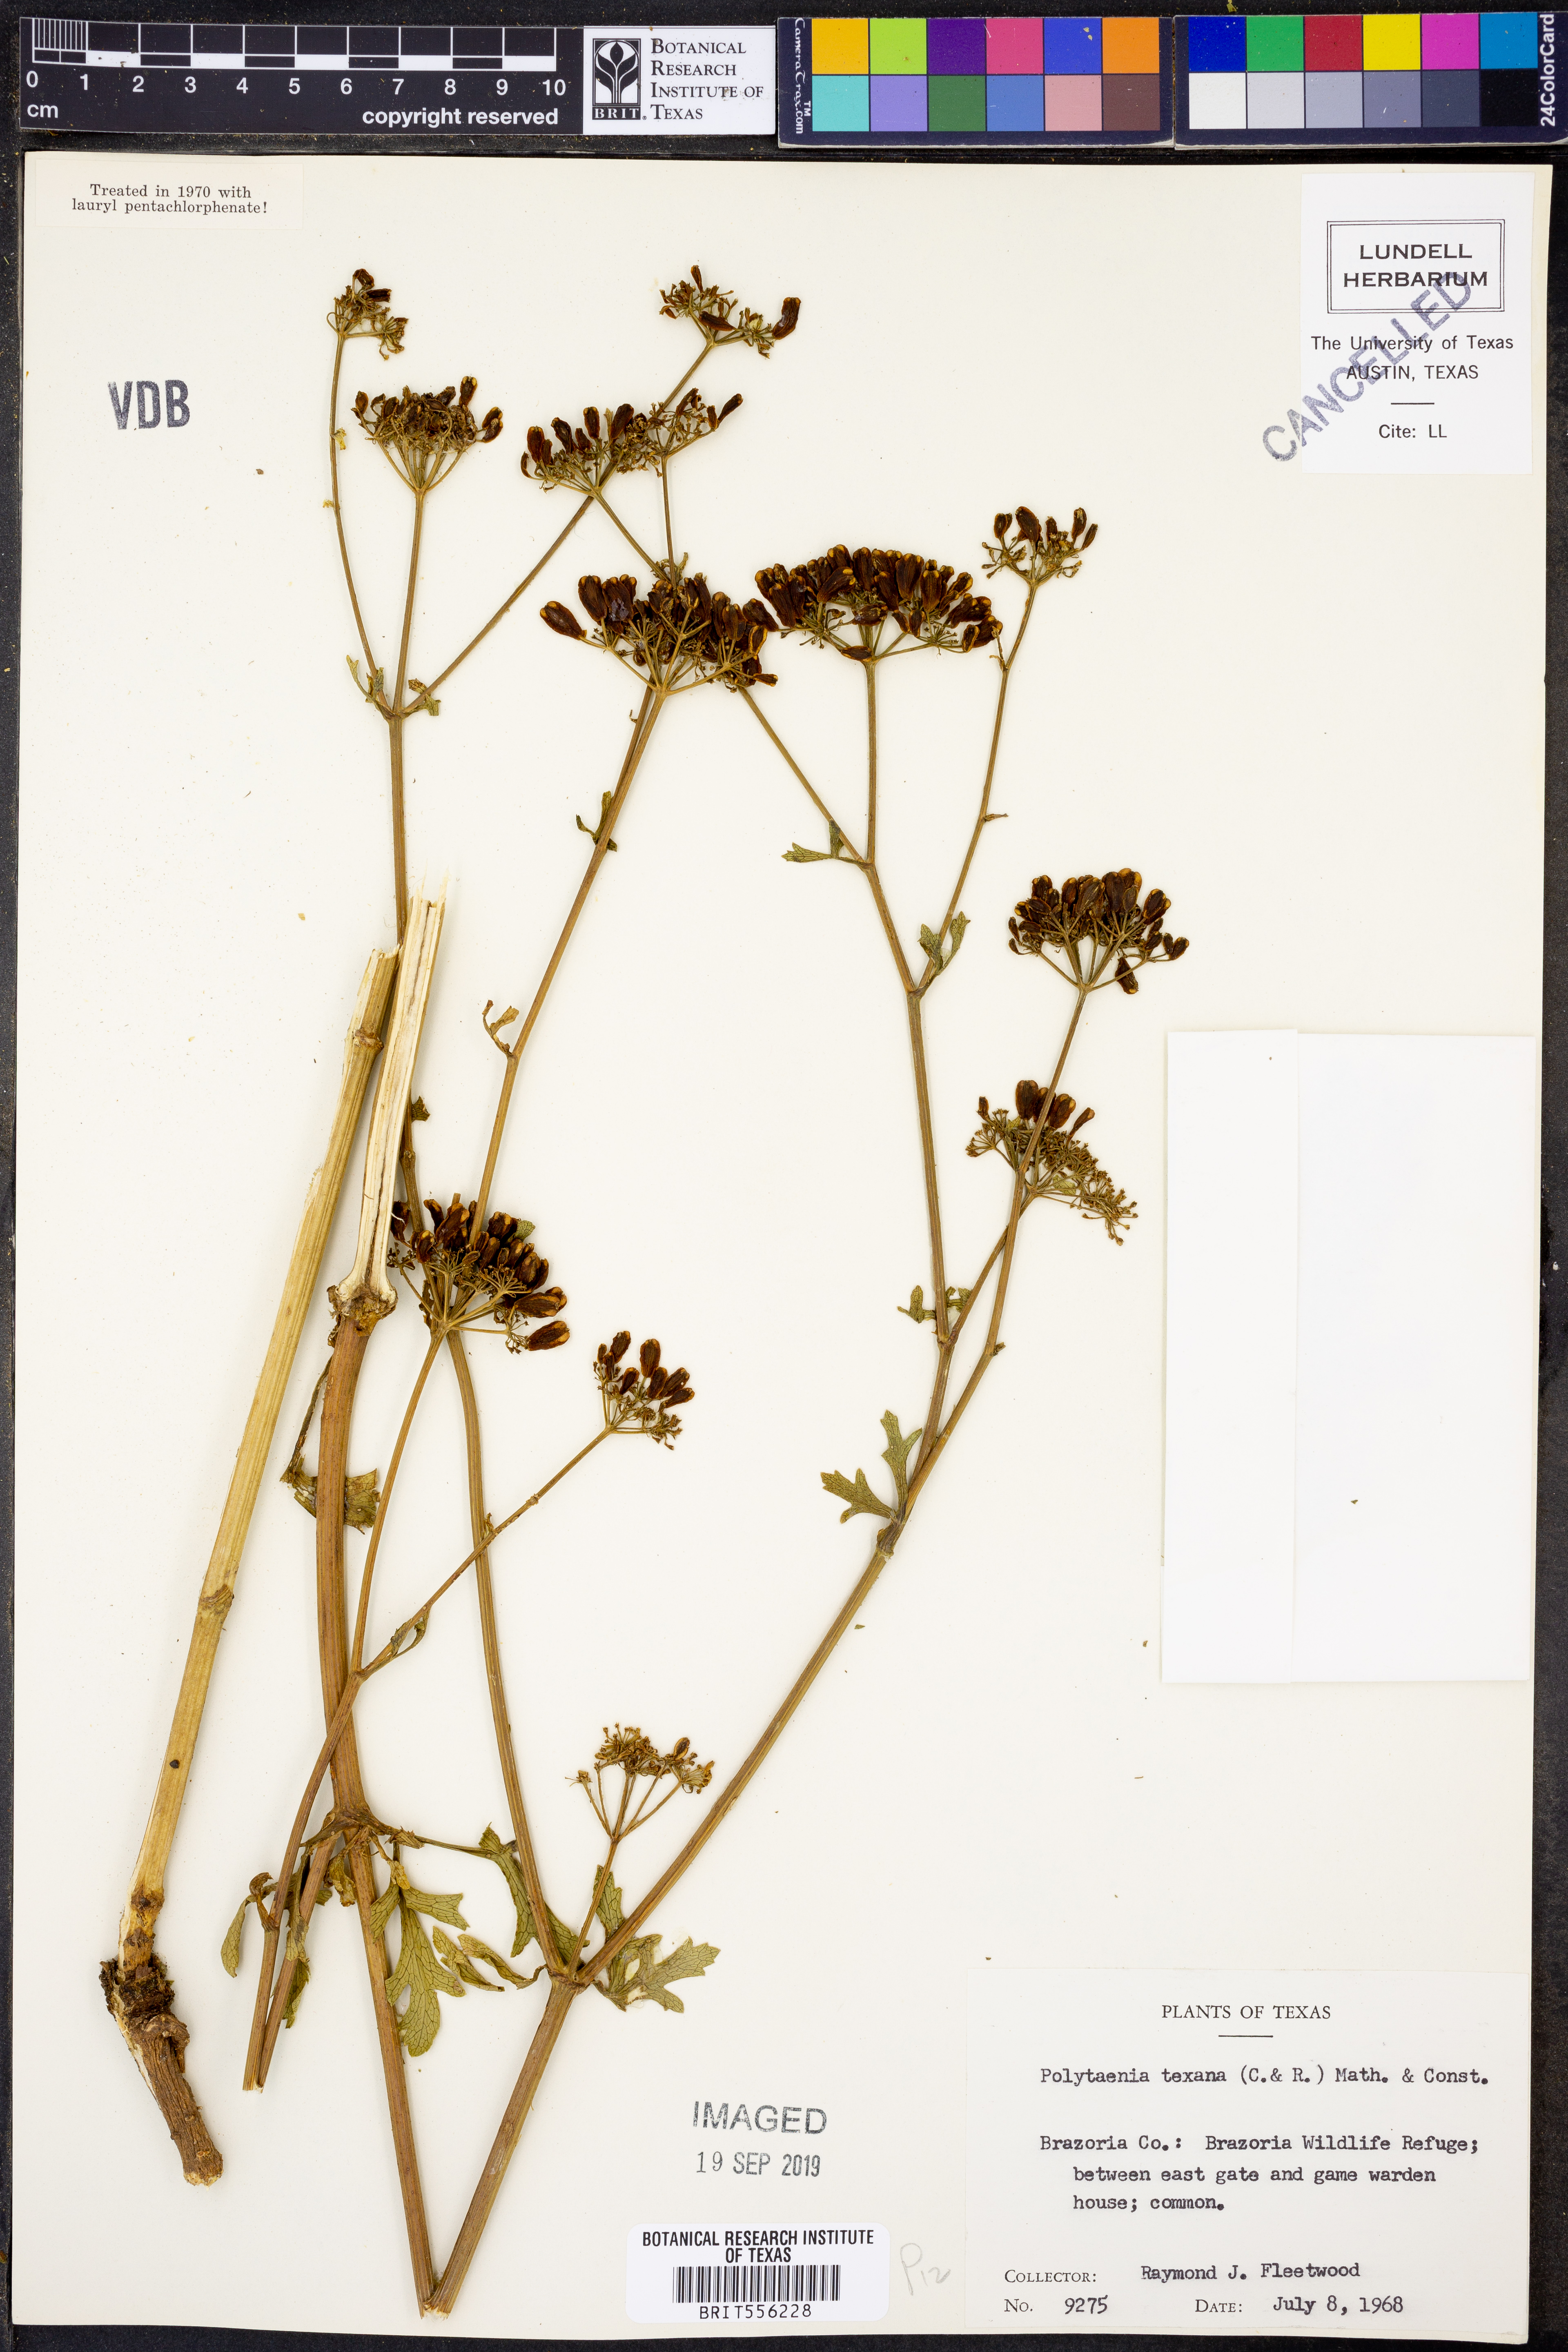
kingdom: Plantae
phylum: Tracheophyta
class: Magnoliopsida
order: Apiales
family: Apiaceae
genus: Polytaenia
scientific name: Polytaenia texana
